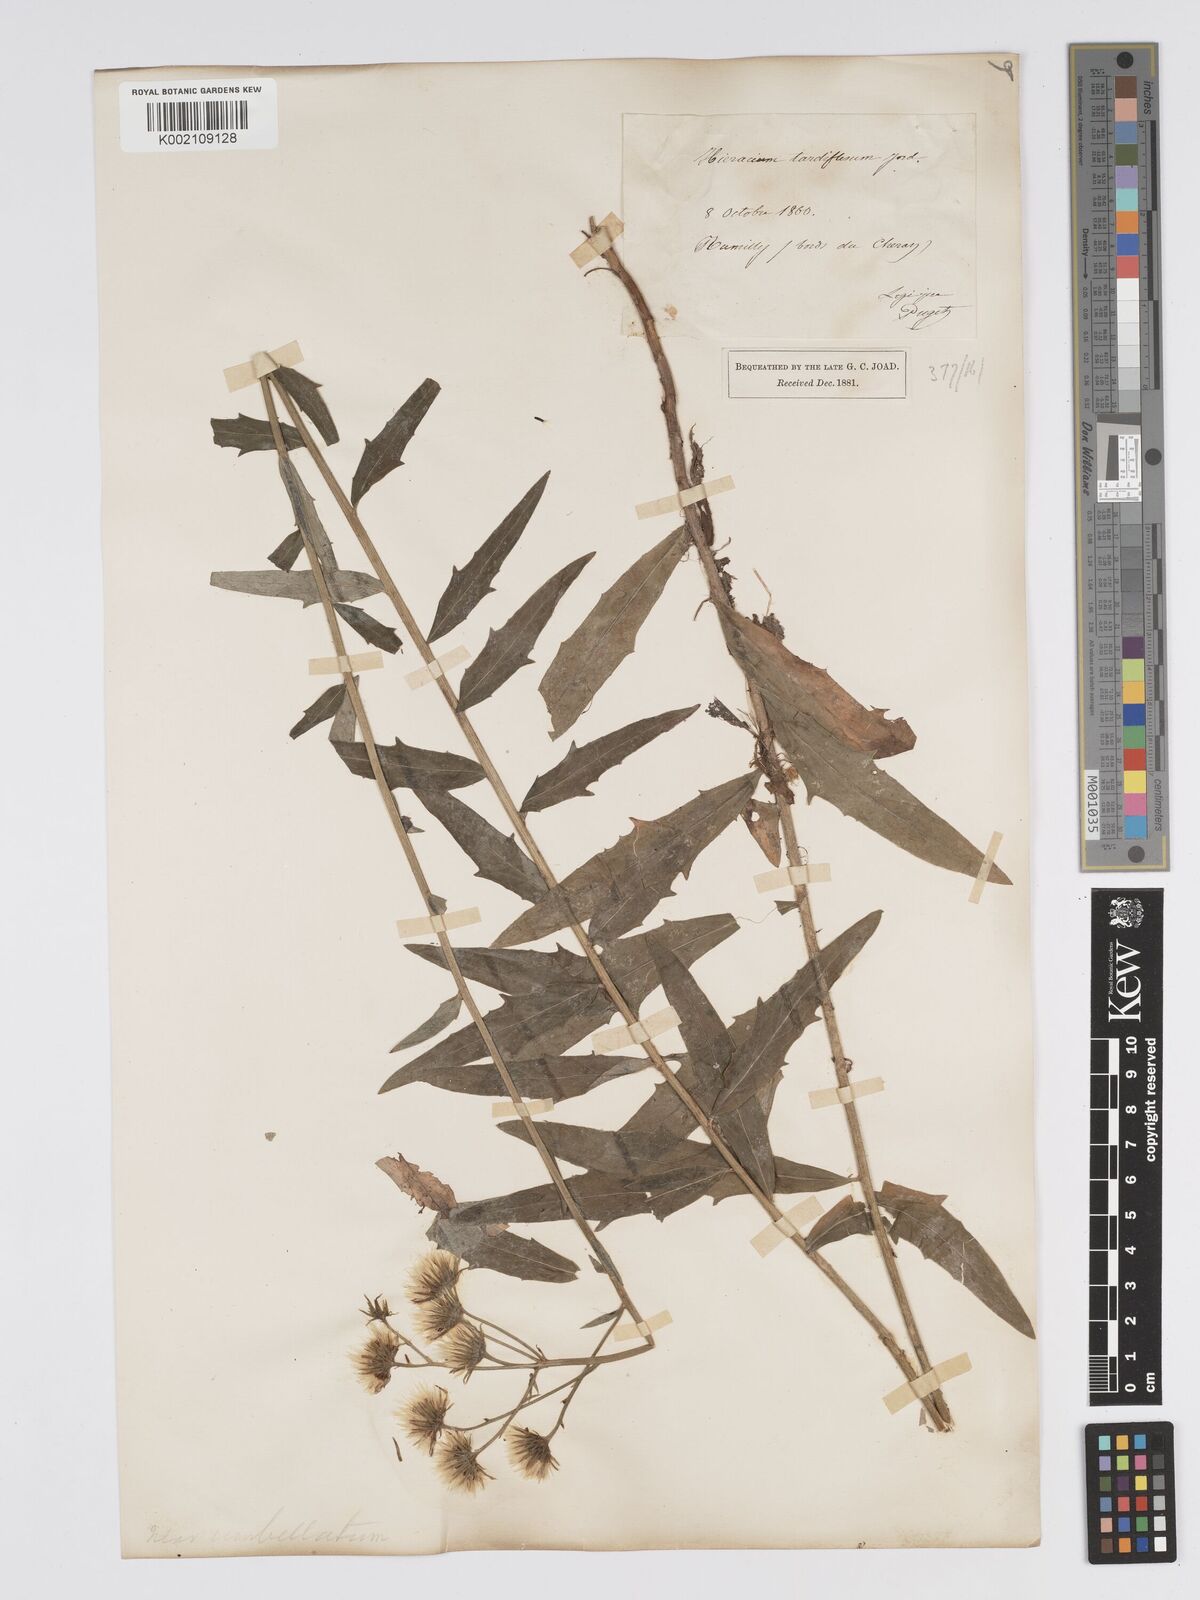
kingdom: Plantae
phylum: Tracheophyta
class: Magnoliopsida
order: Asterales
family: Asteraceae
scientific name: Asteraceae
